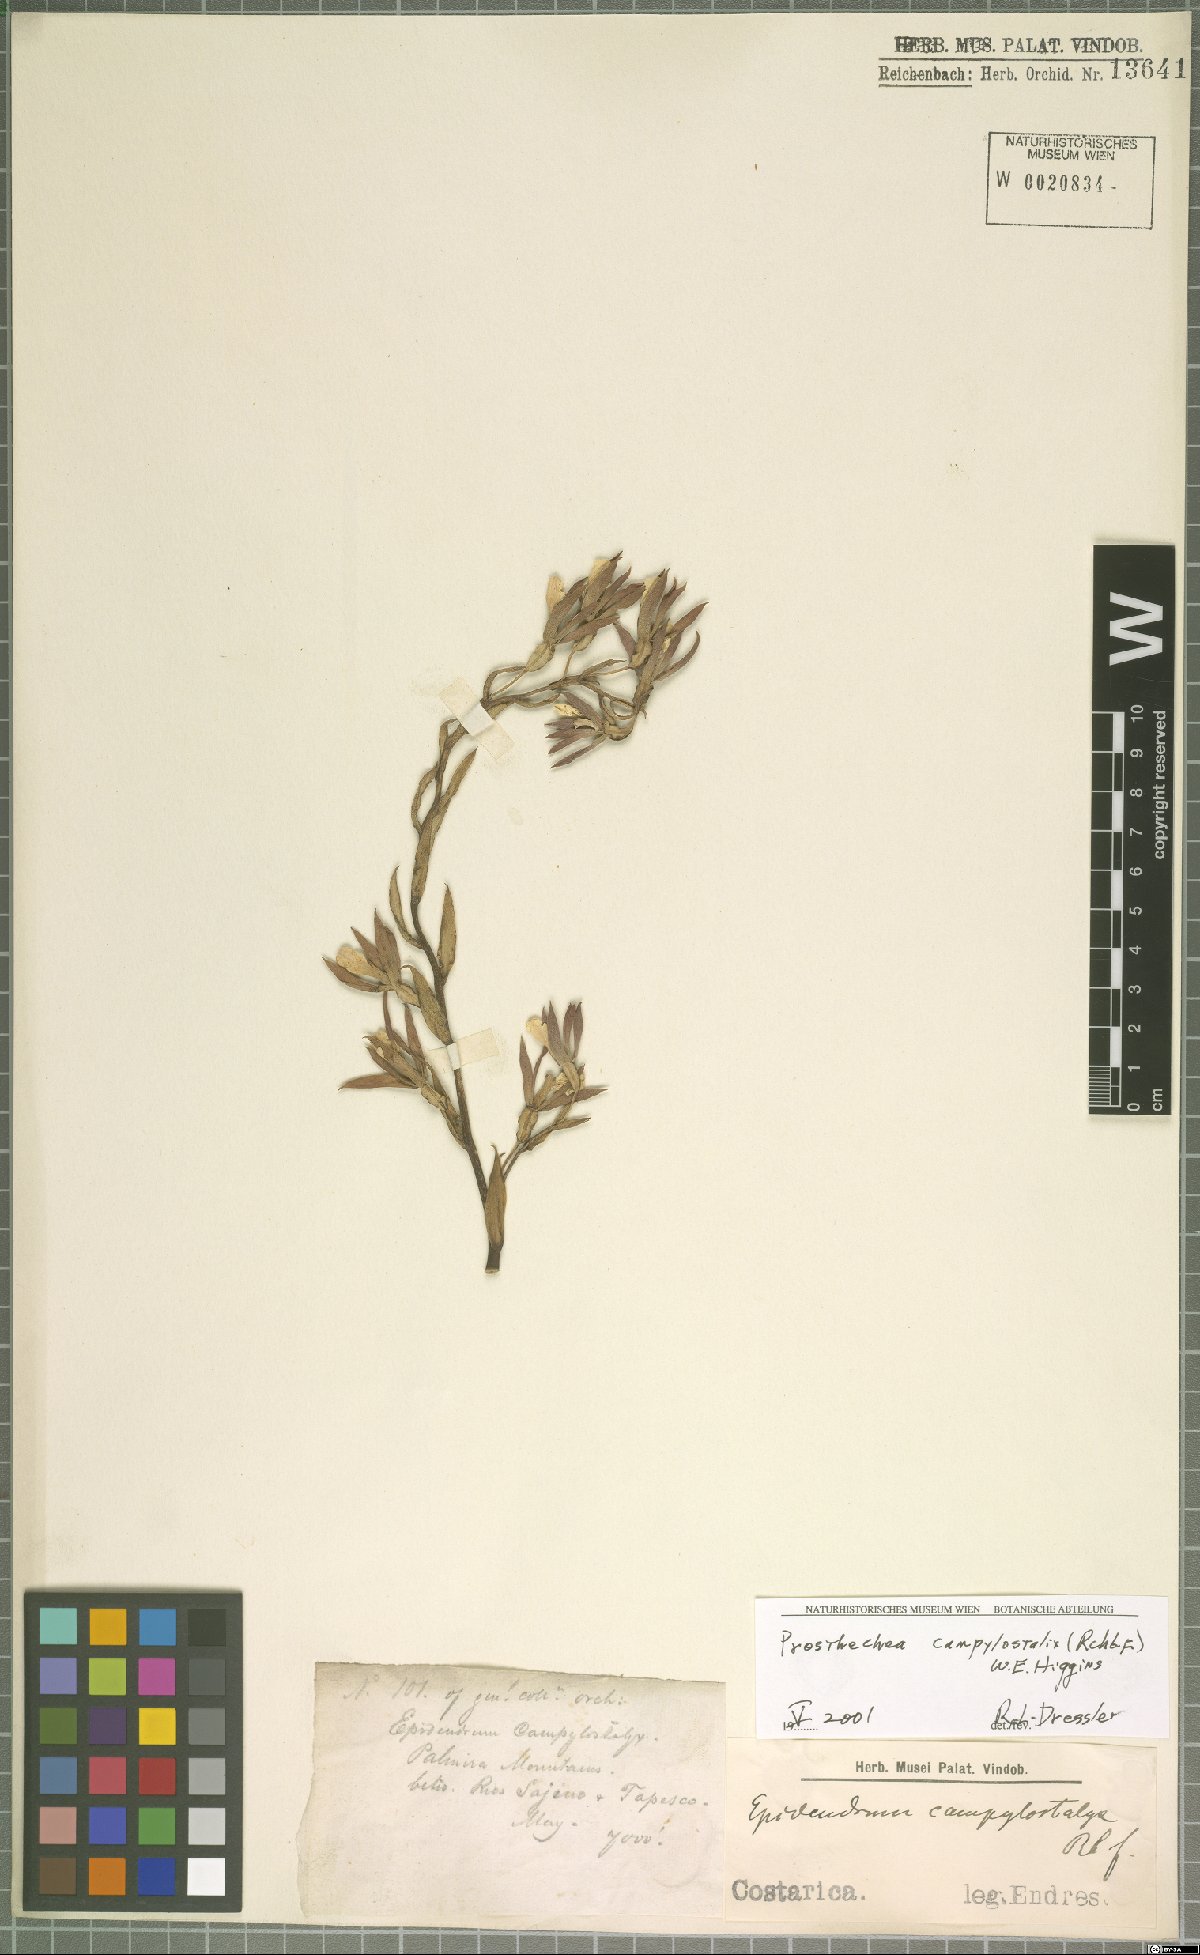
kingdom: Plantae
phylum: Tracheophyta
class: Liliopsida
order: Asparagales
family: Orchidaceae
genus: Prosthechea
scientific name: Prosthechea campylostalix
